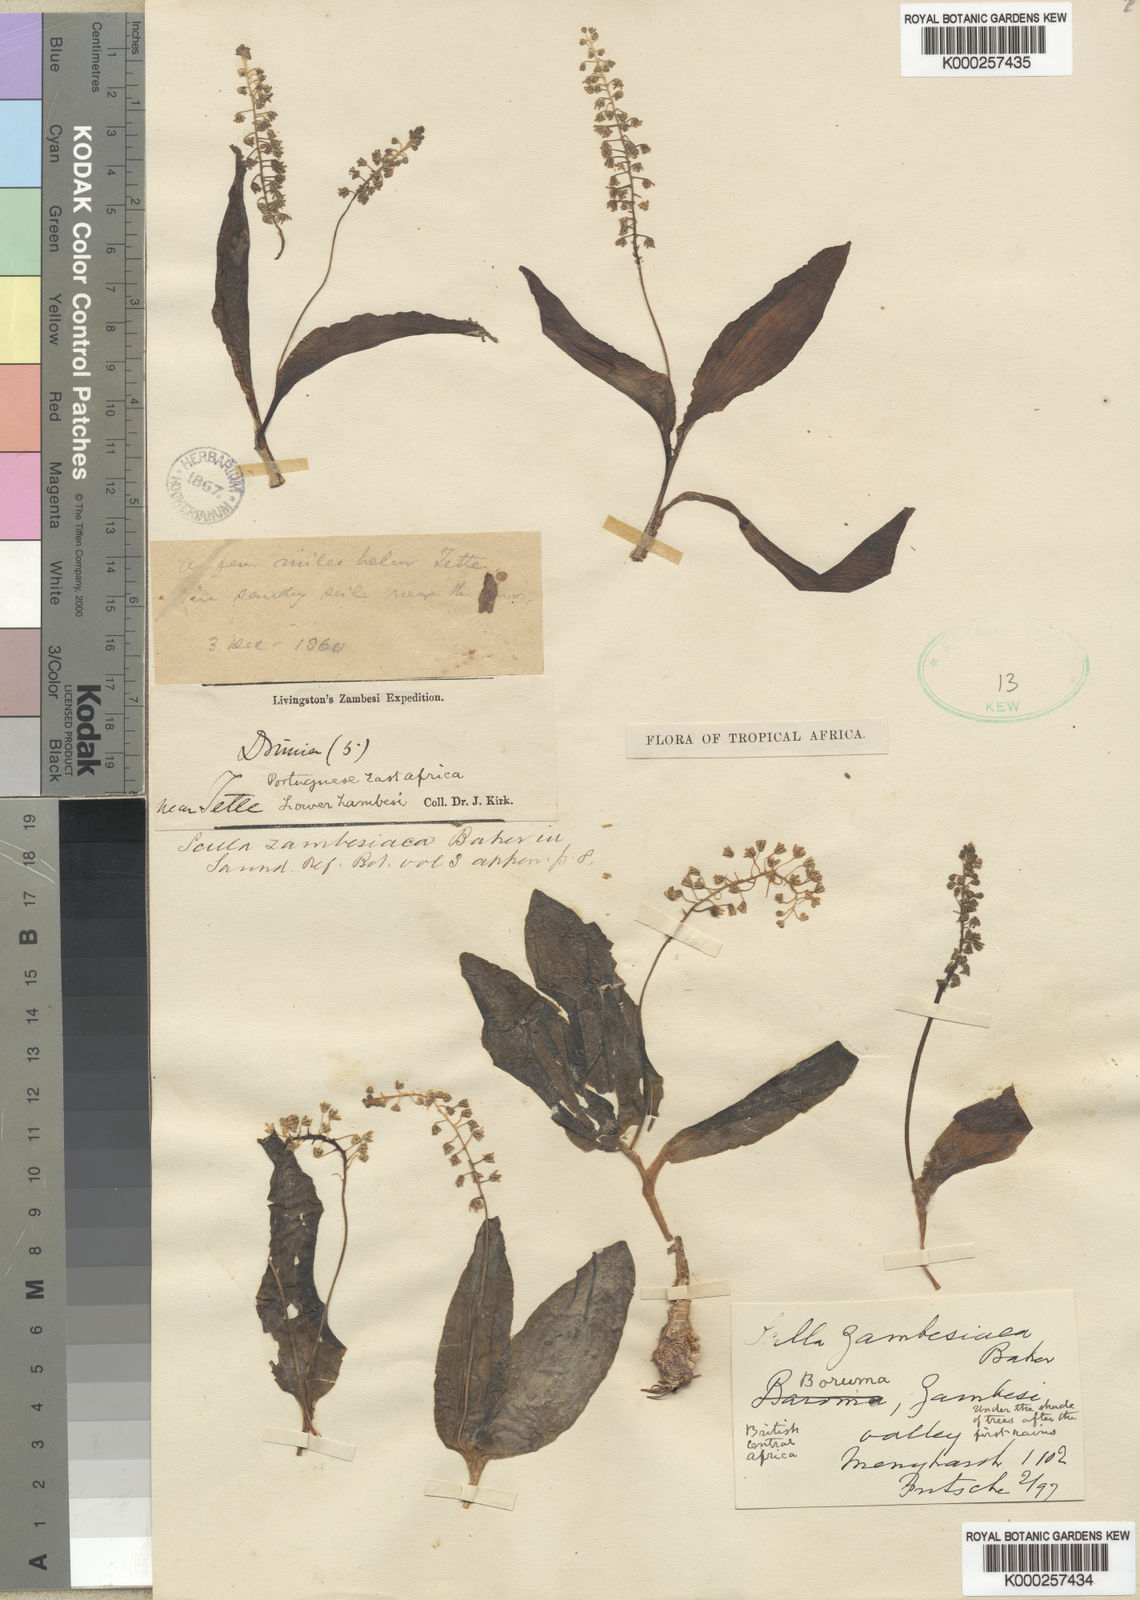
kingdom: Plantae
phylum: Tracheophyta
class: Liliopsida
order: Asparagales
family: Asparagaceae
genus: Ledebouria
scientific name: Ledebouria zambesiaca
